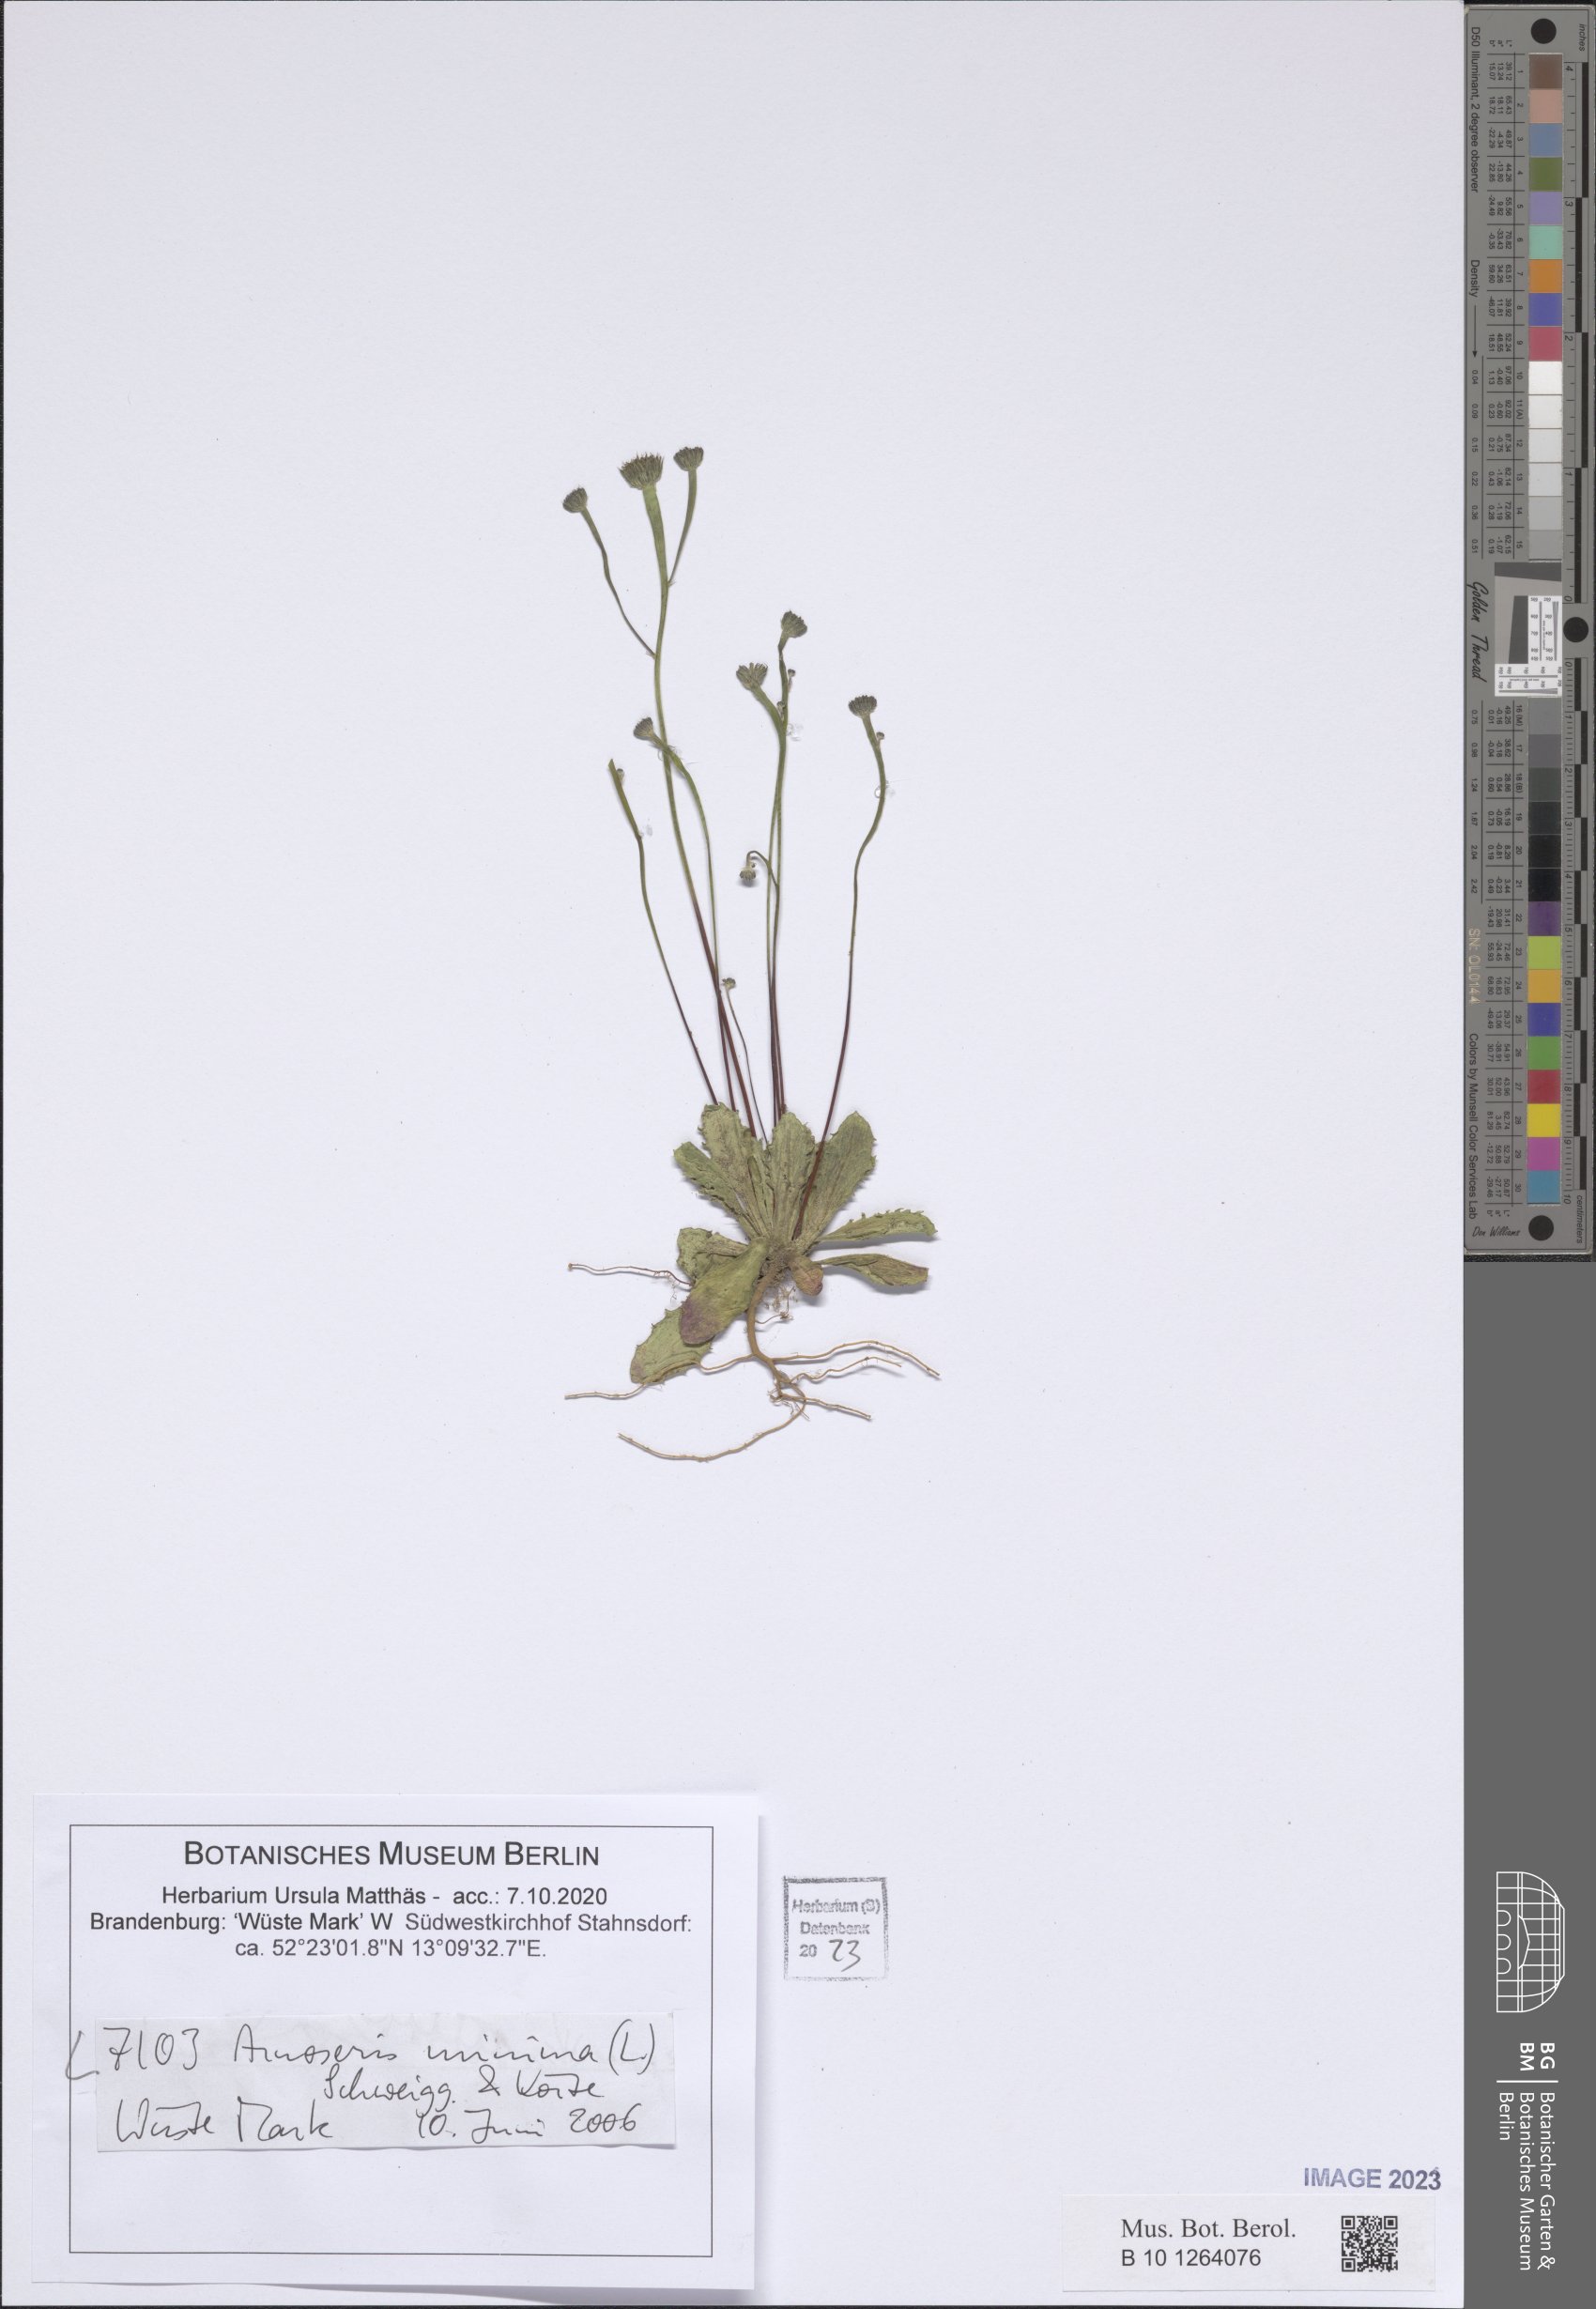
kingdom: Plantae
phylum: Tracheophyta
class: Magnoliopsida
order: Asterales
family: Asteraceae
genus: Arnoseris
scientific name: Arnoseris minima
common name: Lamb's succory
